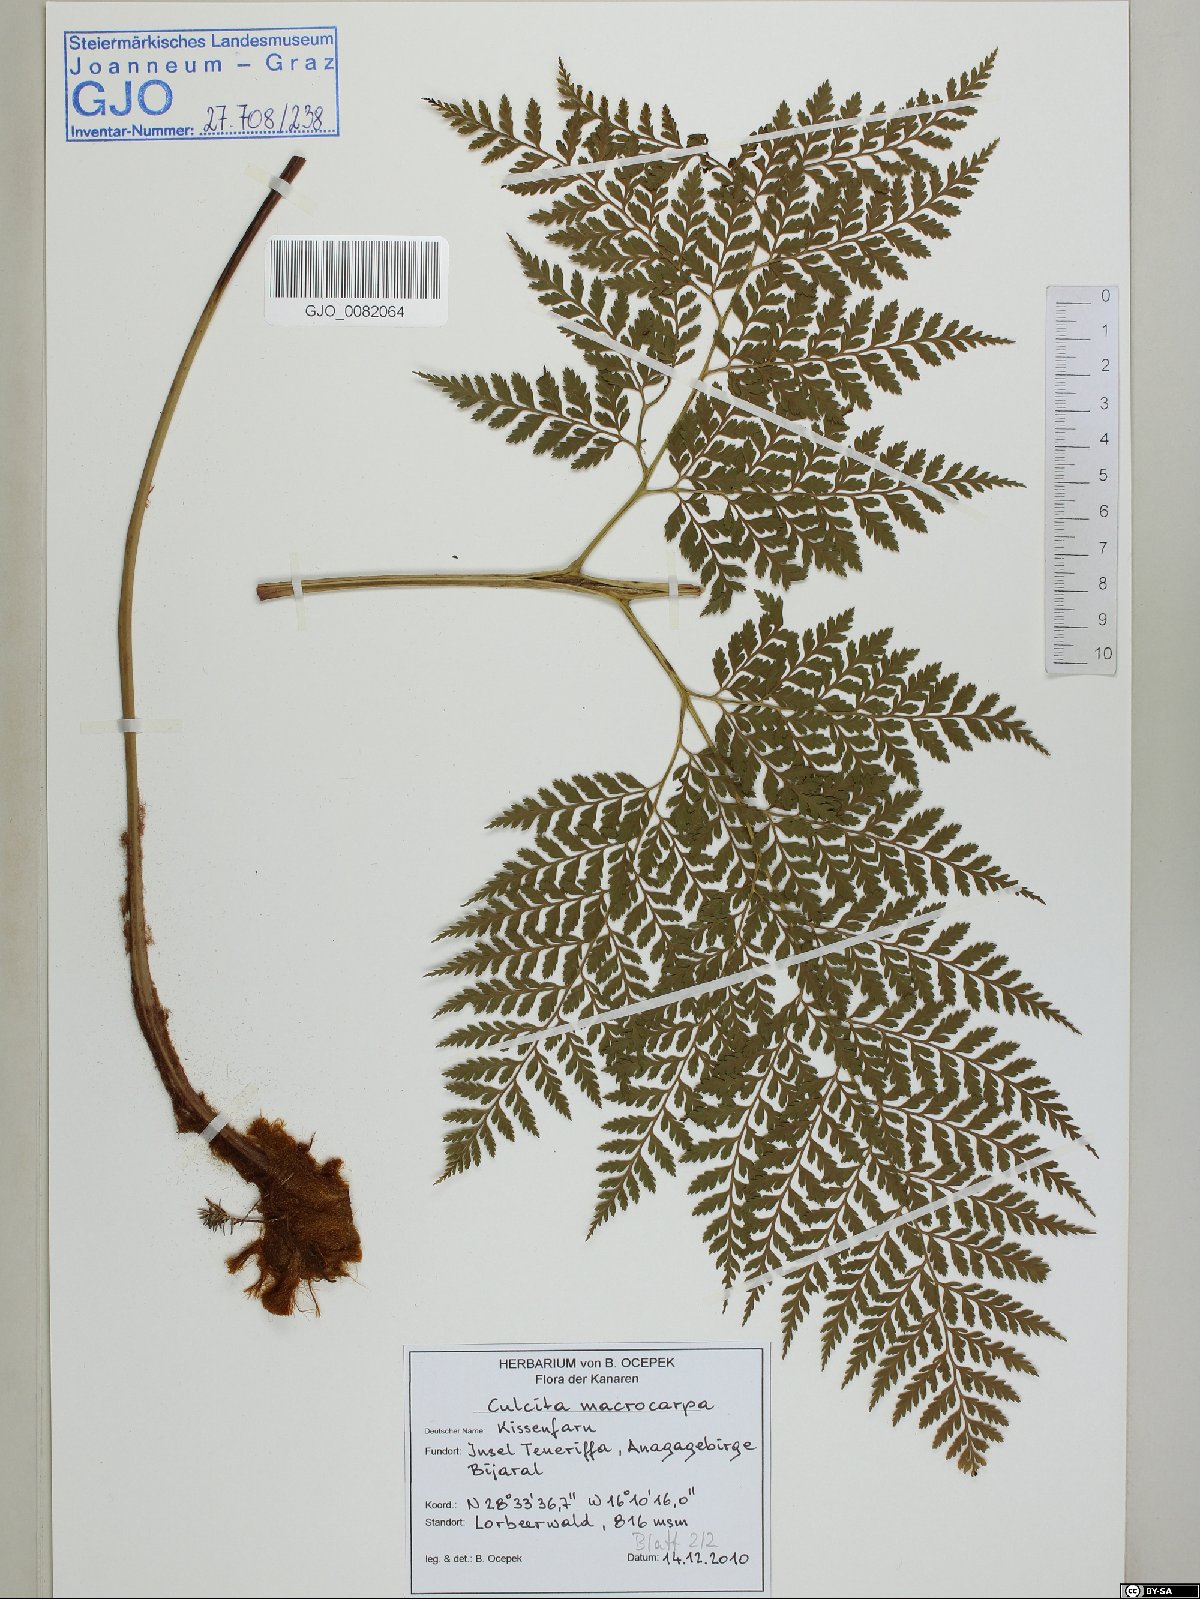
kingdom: Plantae
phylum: Tracheophyta
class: Polypodiopsida
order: Cyatheales
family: Culcitaceae
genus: Culcita
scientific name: Culcita macrocarpa
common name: Woolly tree fern
